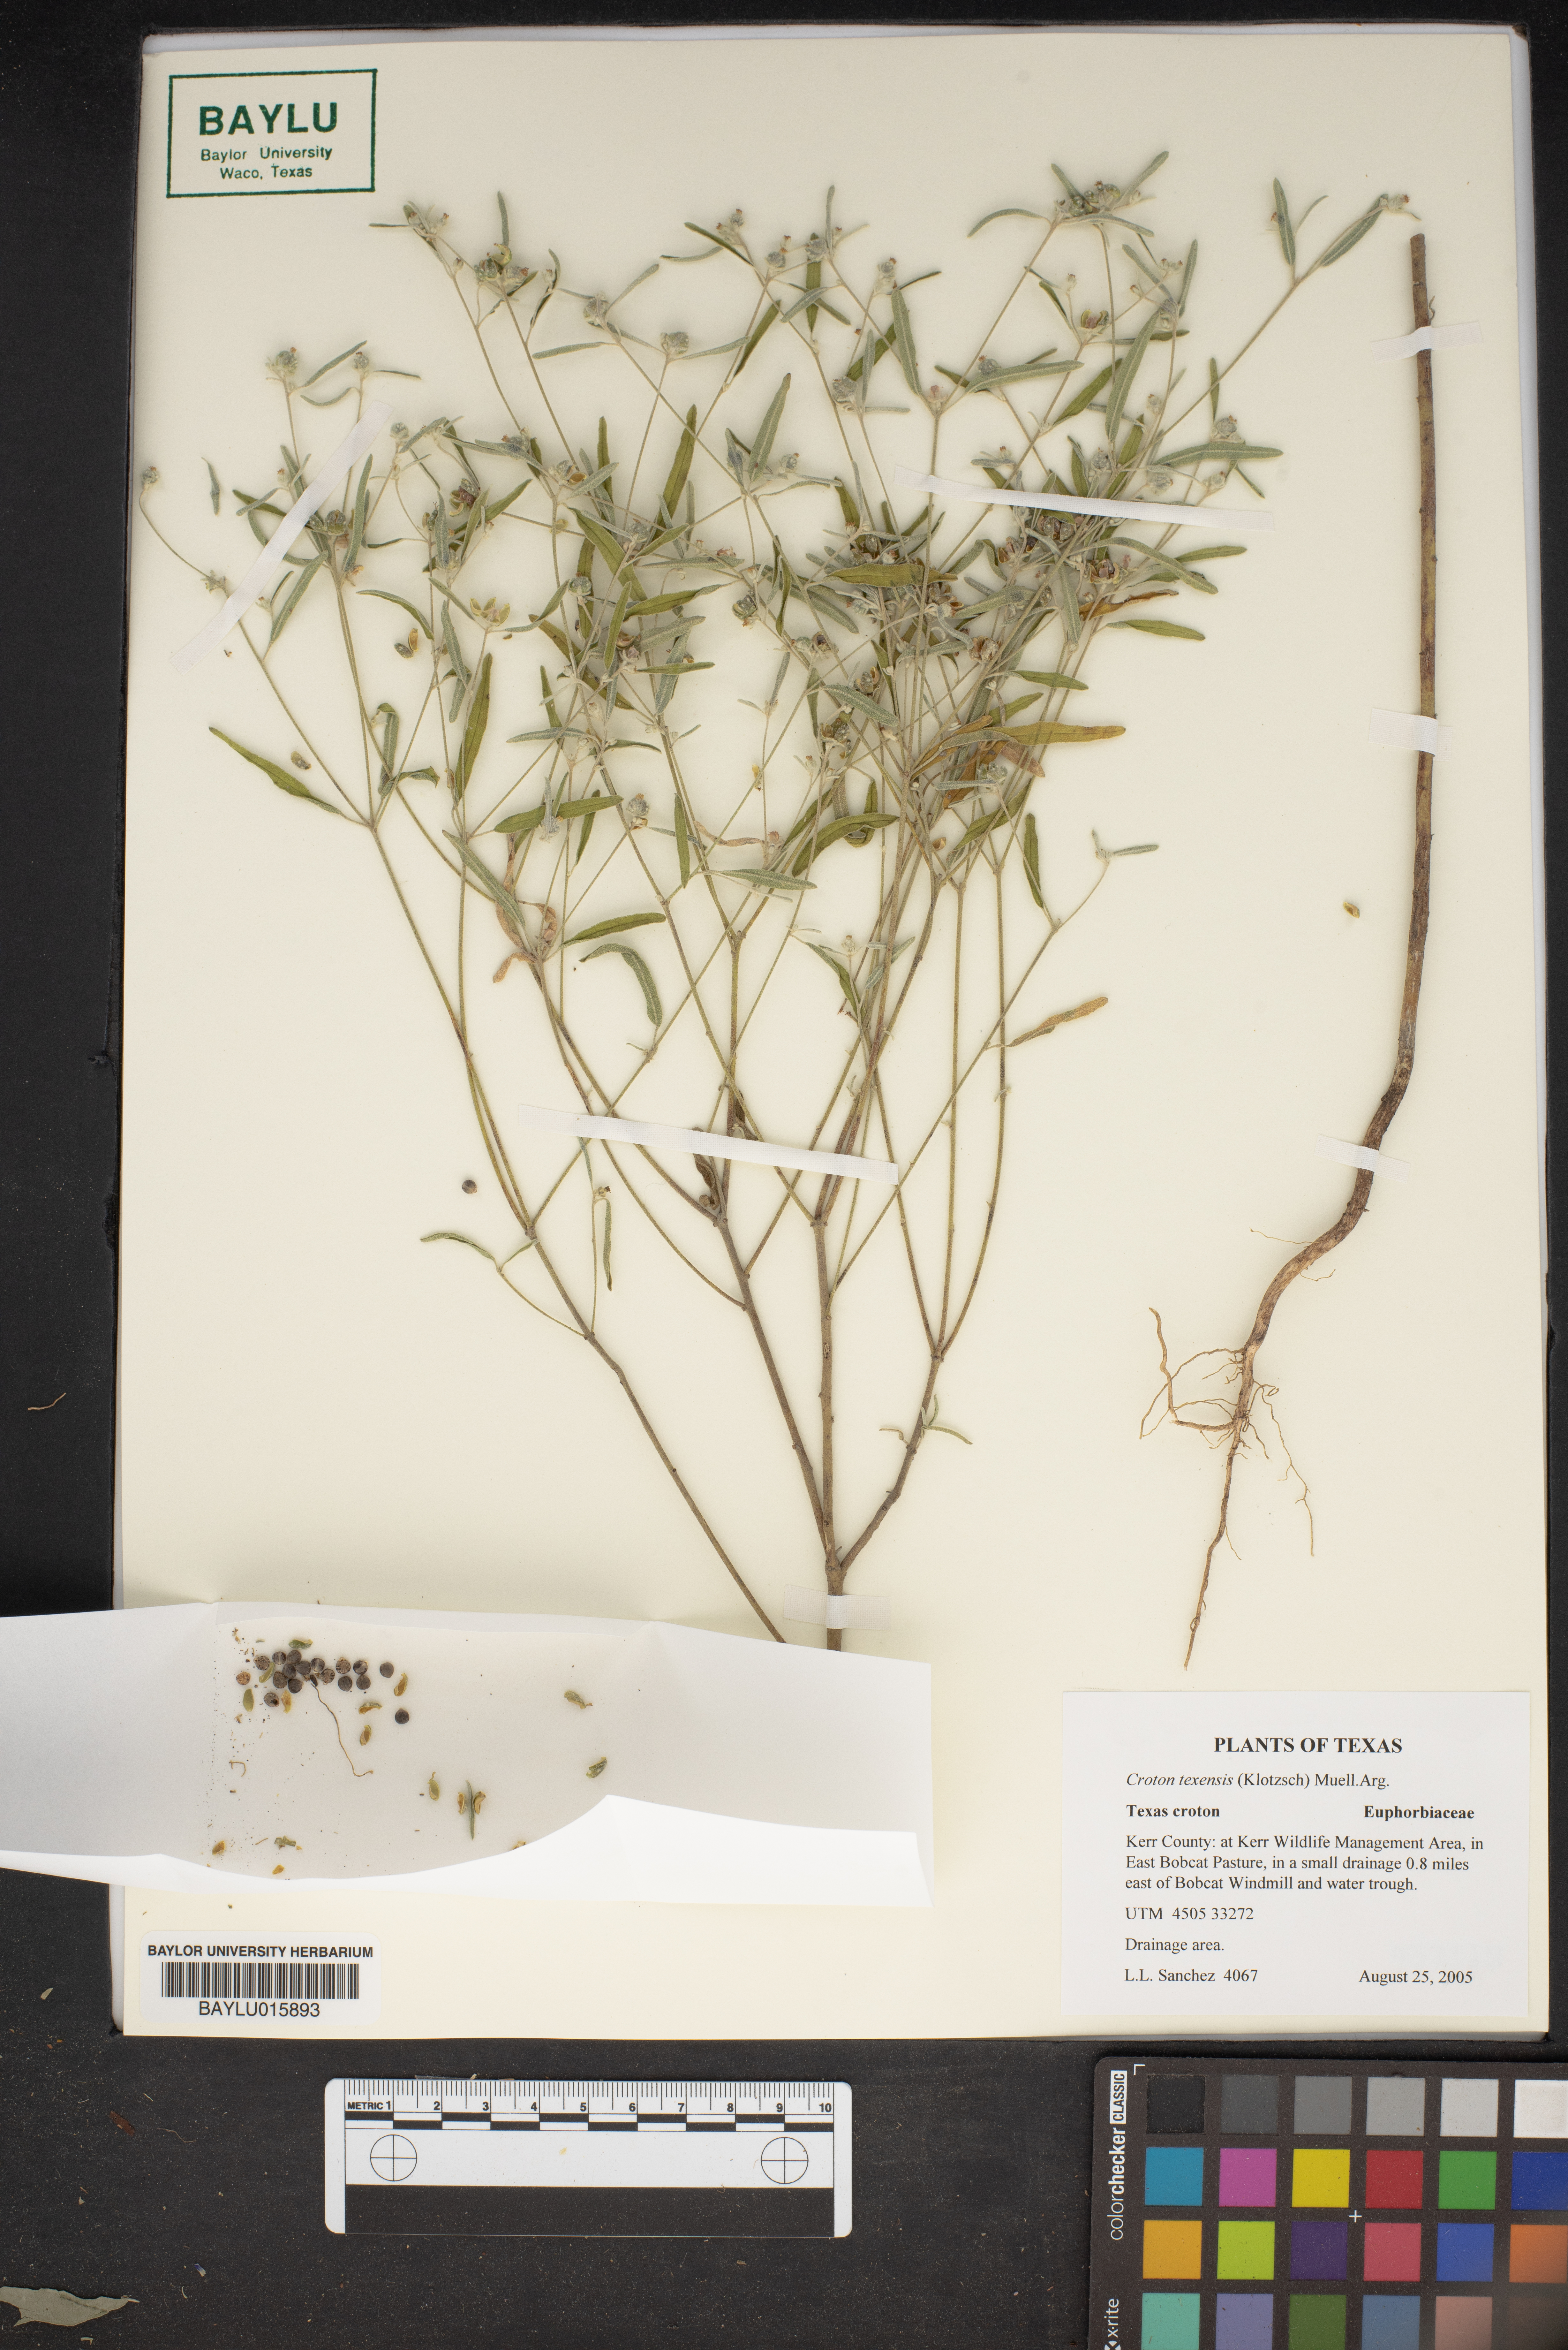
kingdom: Plantae
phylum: Tracheophyta
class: Magnoliopsida
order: Malpighiales
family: Euphorbiaceae
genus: Croton
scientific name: Croton texensis
